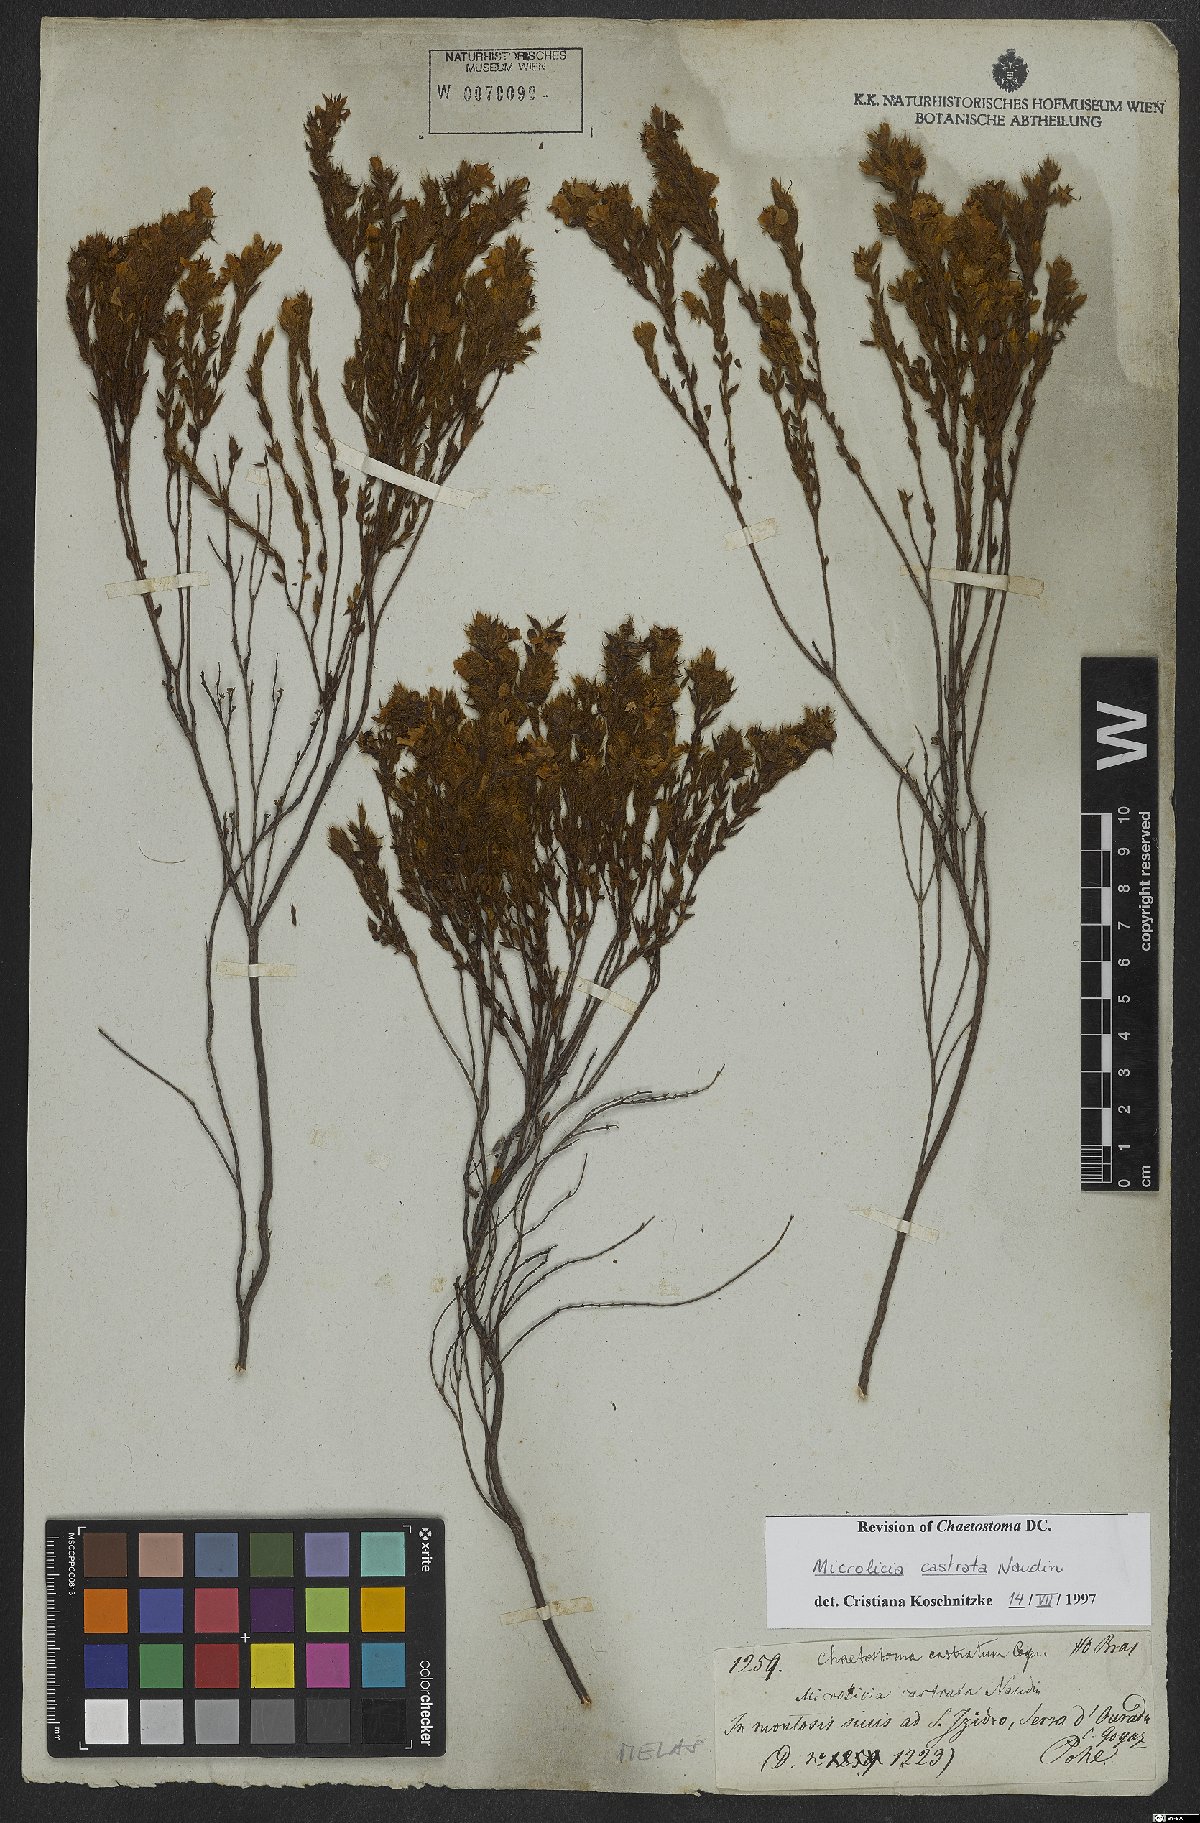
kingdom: Plantae
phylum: Tracheophyta
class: Magnoliopsida
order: Myrtales
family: Melastomataceae
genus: Microlicia
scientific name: Microlicia castrata
